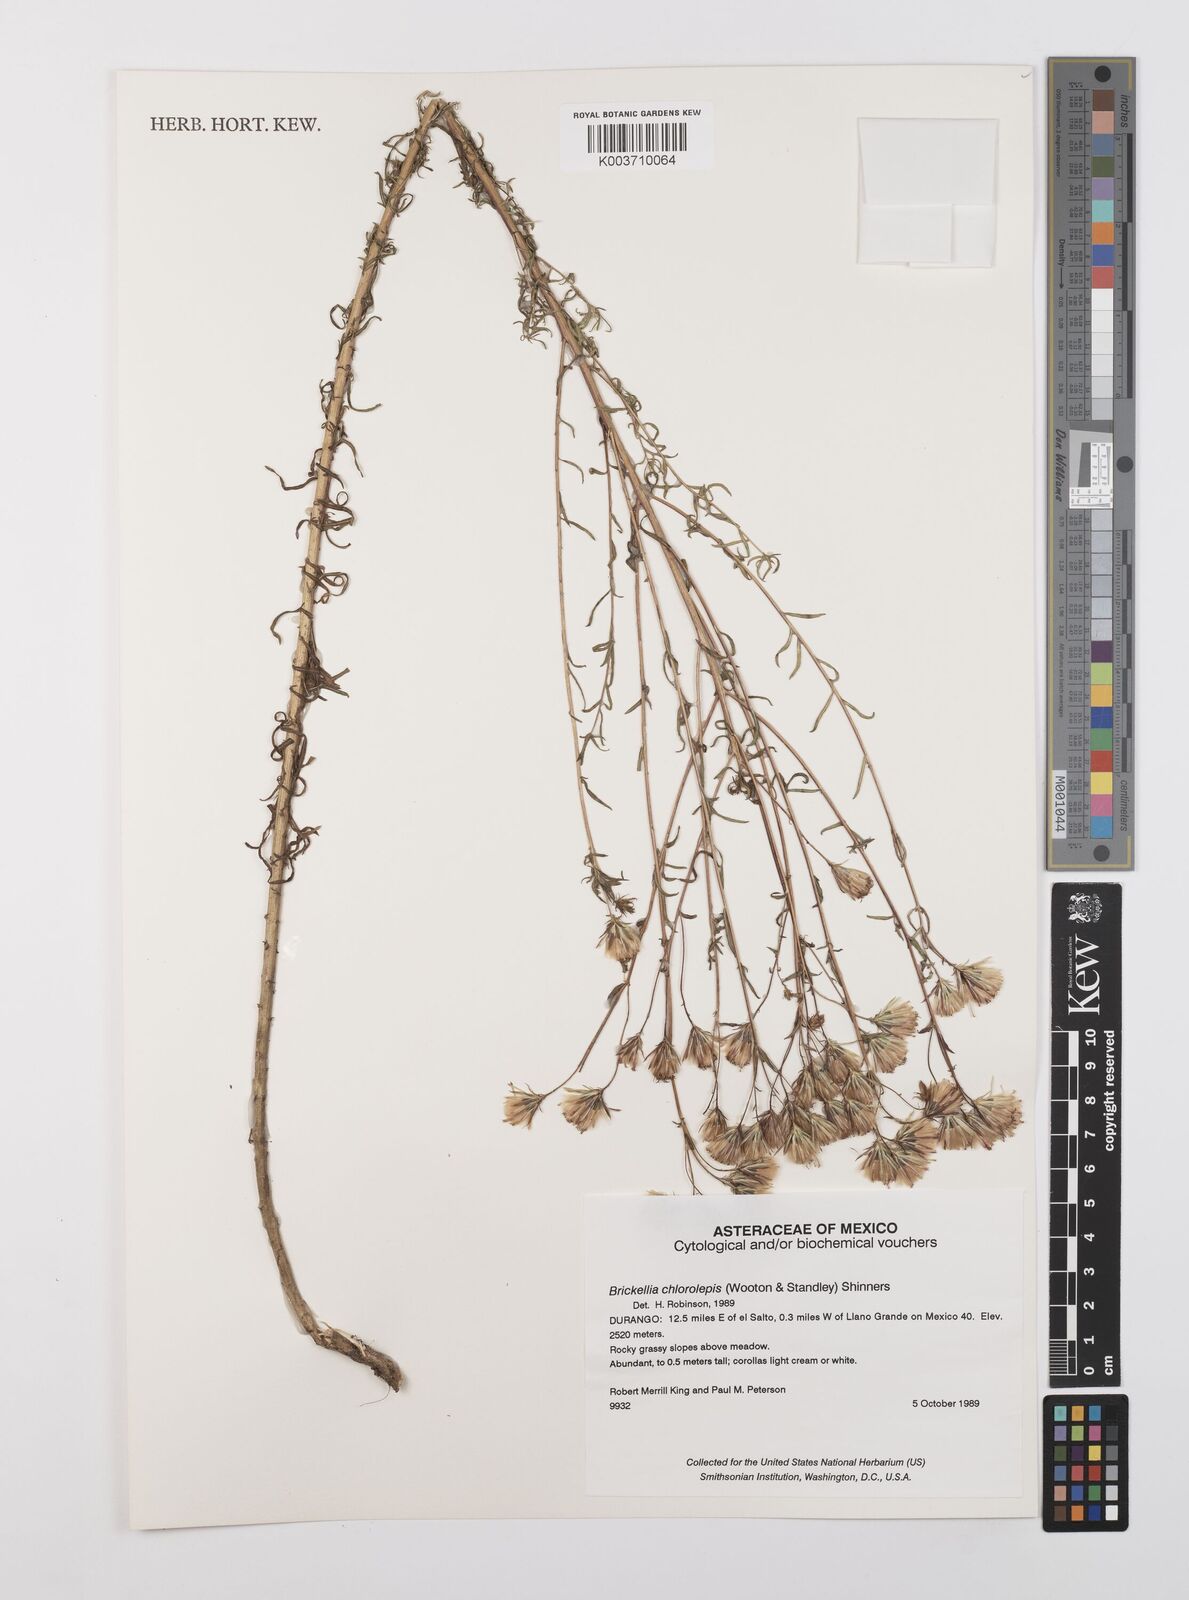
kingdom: Plantae
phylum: Tracheophyta
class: Magnoliopsida
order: Asterales
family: Asteraceae
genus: Brickellia
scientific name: Brickellia leptophylla
